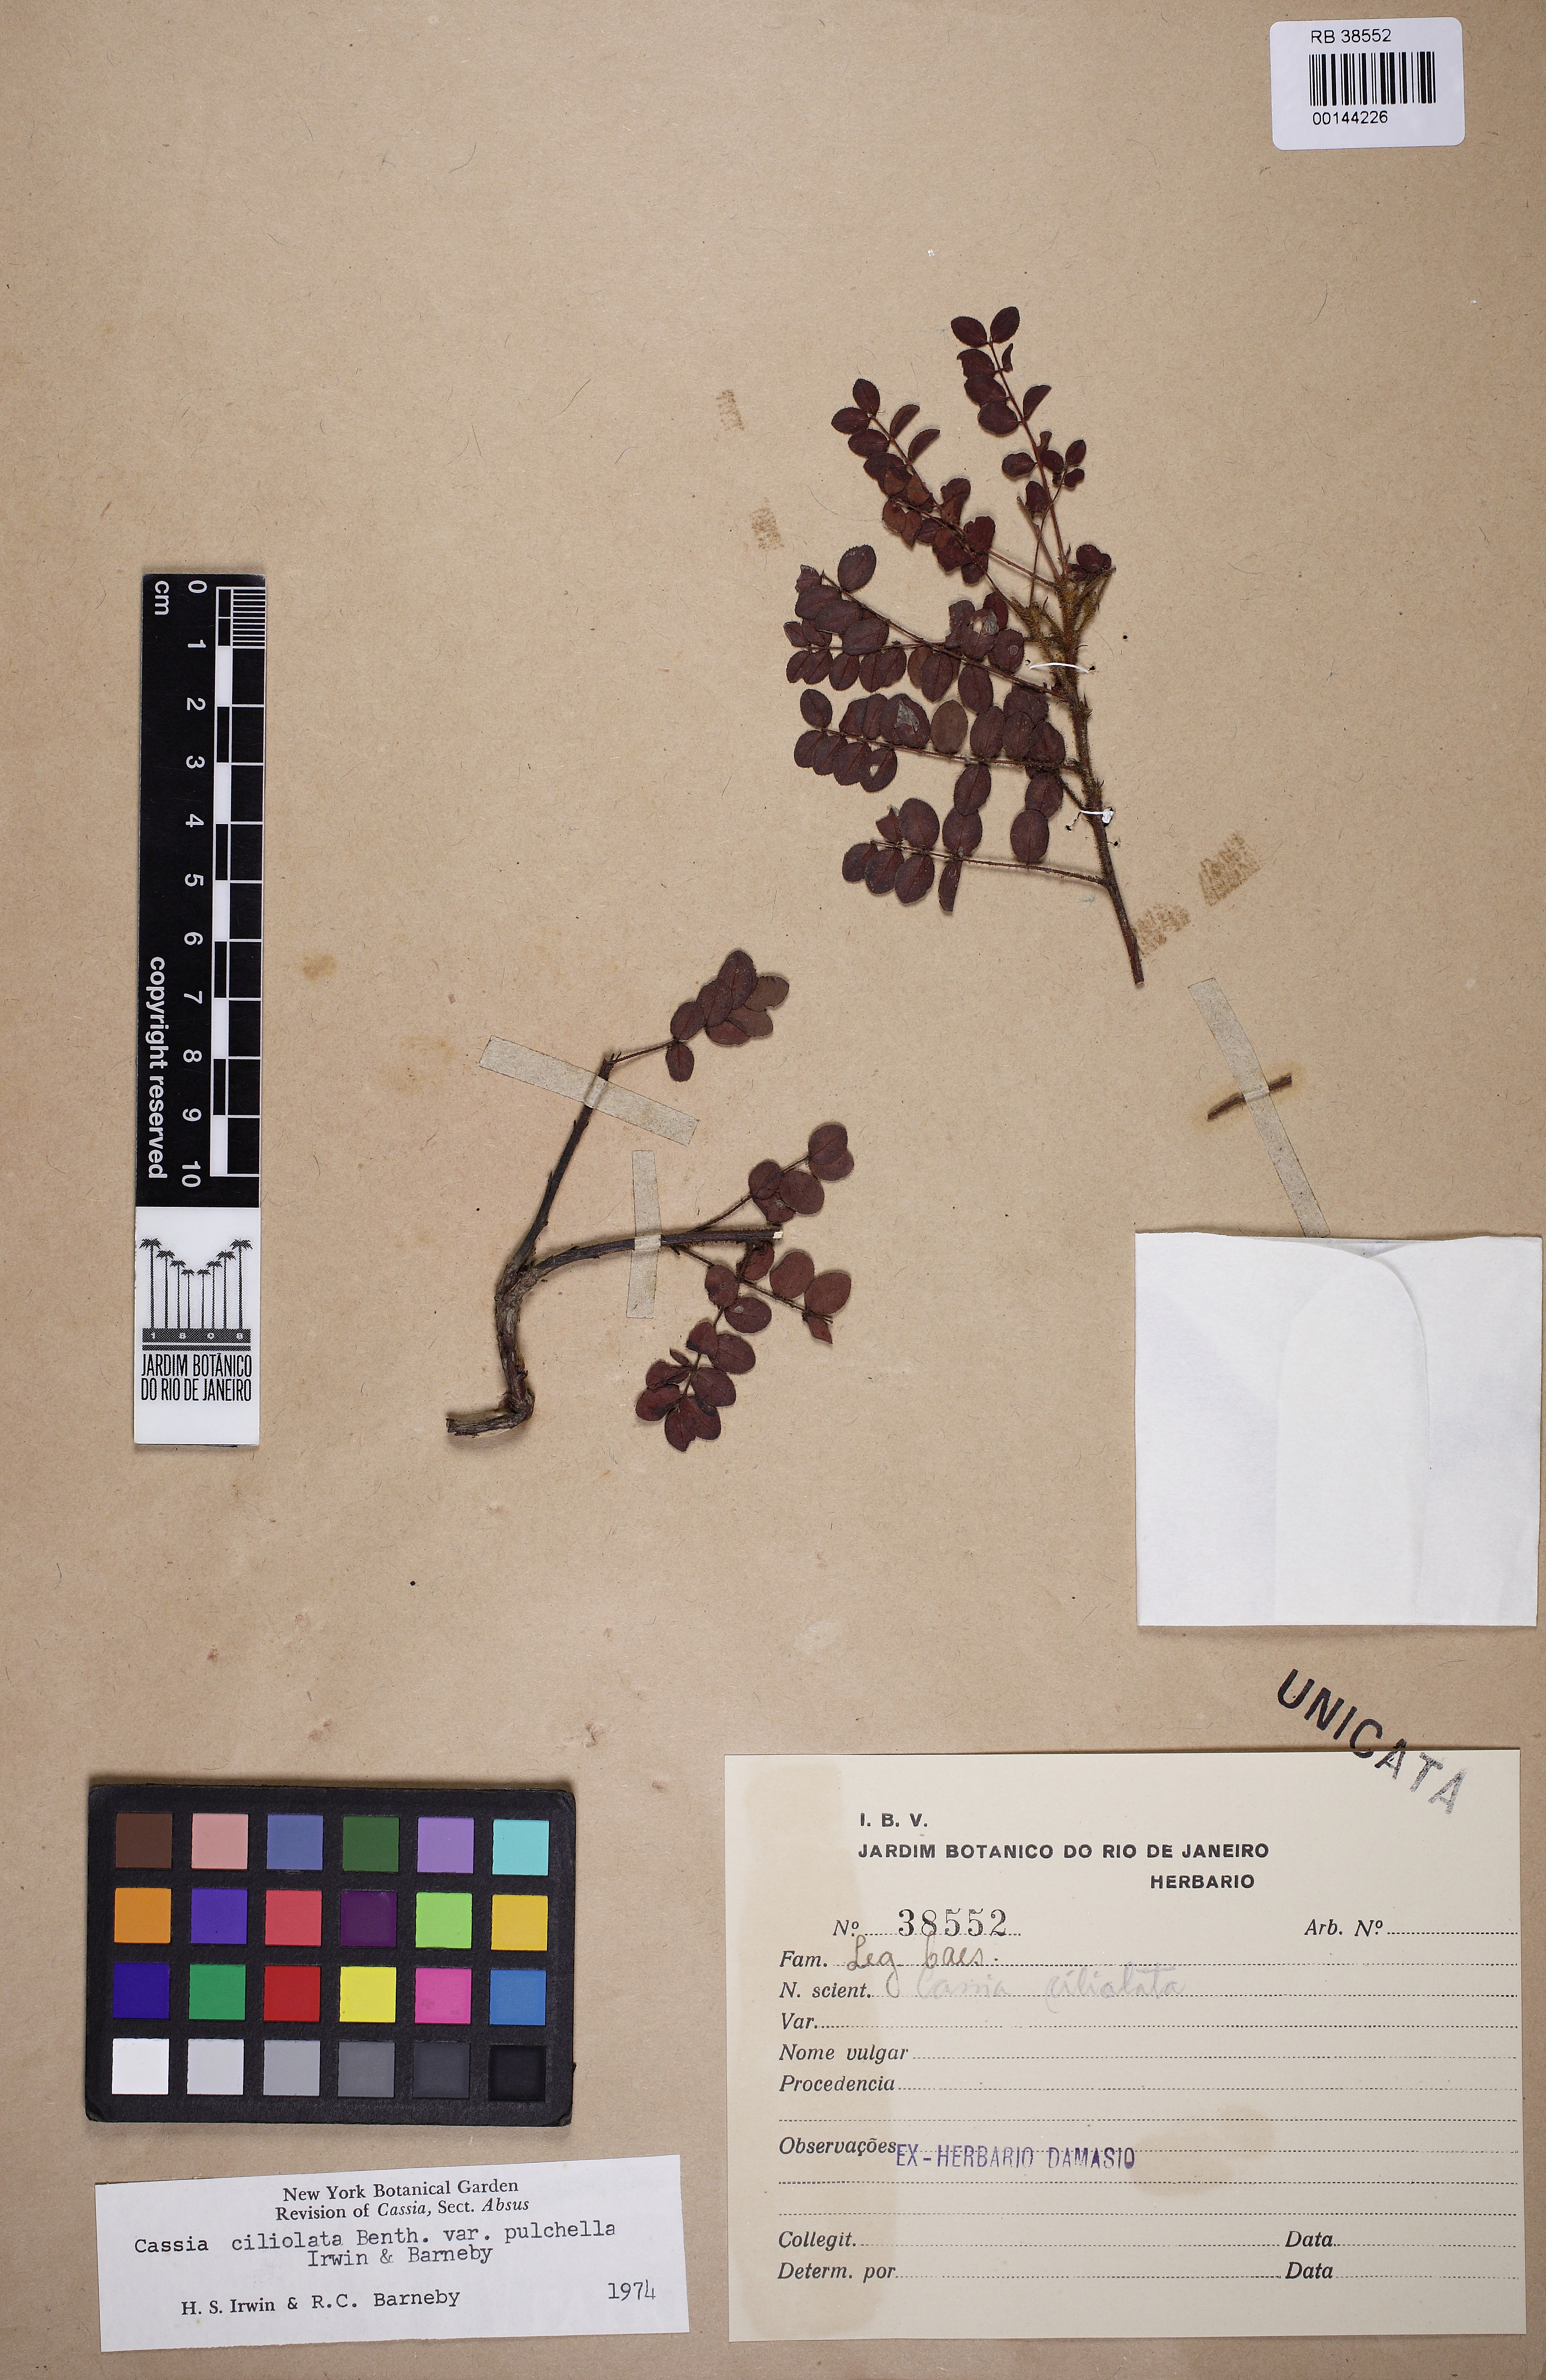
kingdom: Plantae
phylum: Tracheophyta
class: Magnoliopsida
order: Fabales
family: Fabaceae
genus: Chamaecrista
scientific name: Chamaecrista ciliolata
